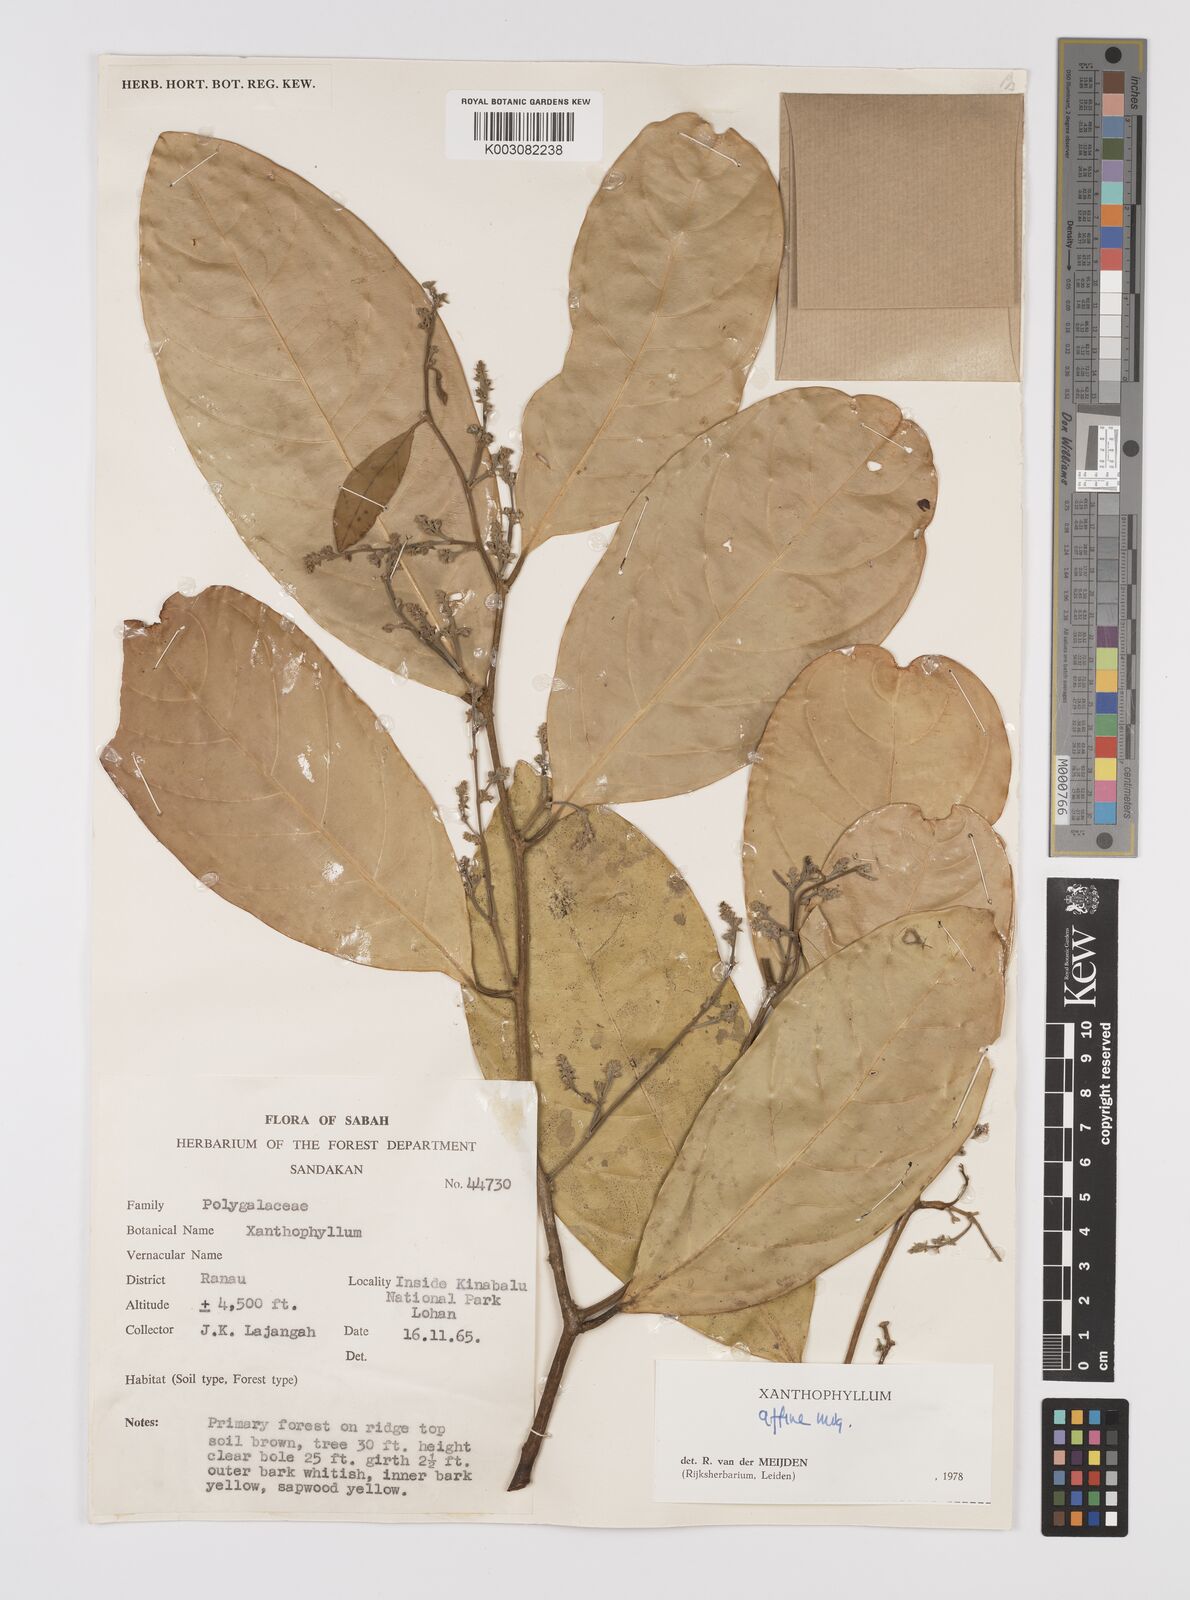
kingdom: Plantae
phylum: Tracheophyta
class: Magnoliopsida
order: Fabales
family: Polygalaceae
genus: Xanthophyllum
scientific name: Xanthophyllum flavescens
